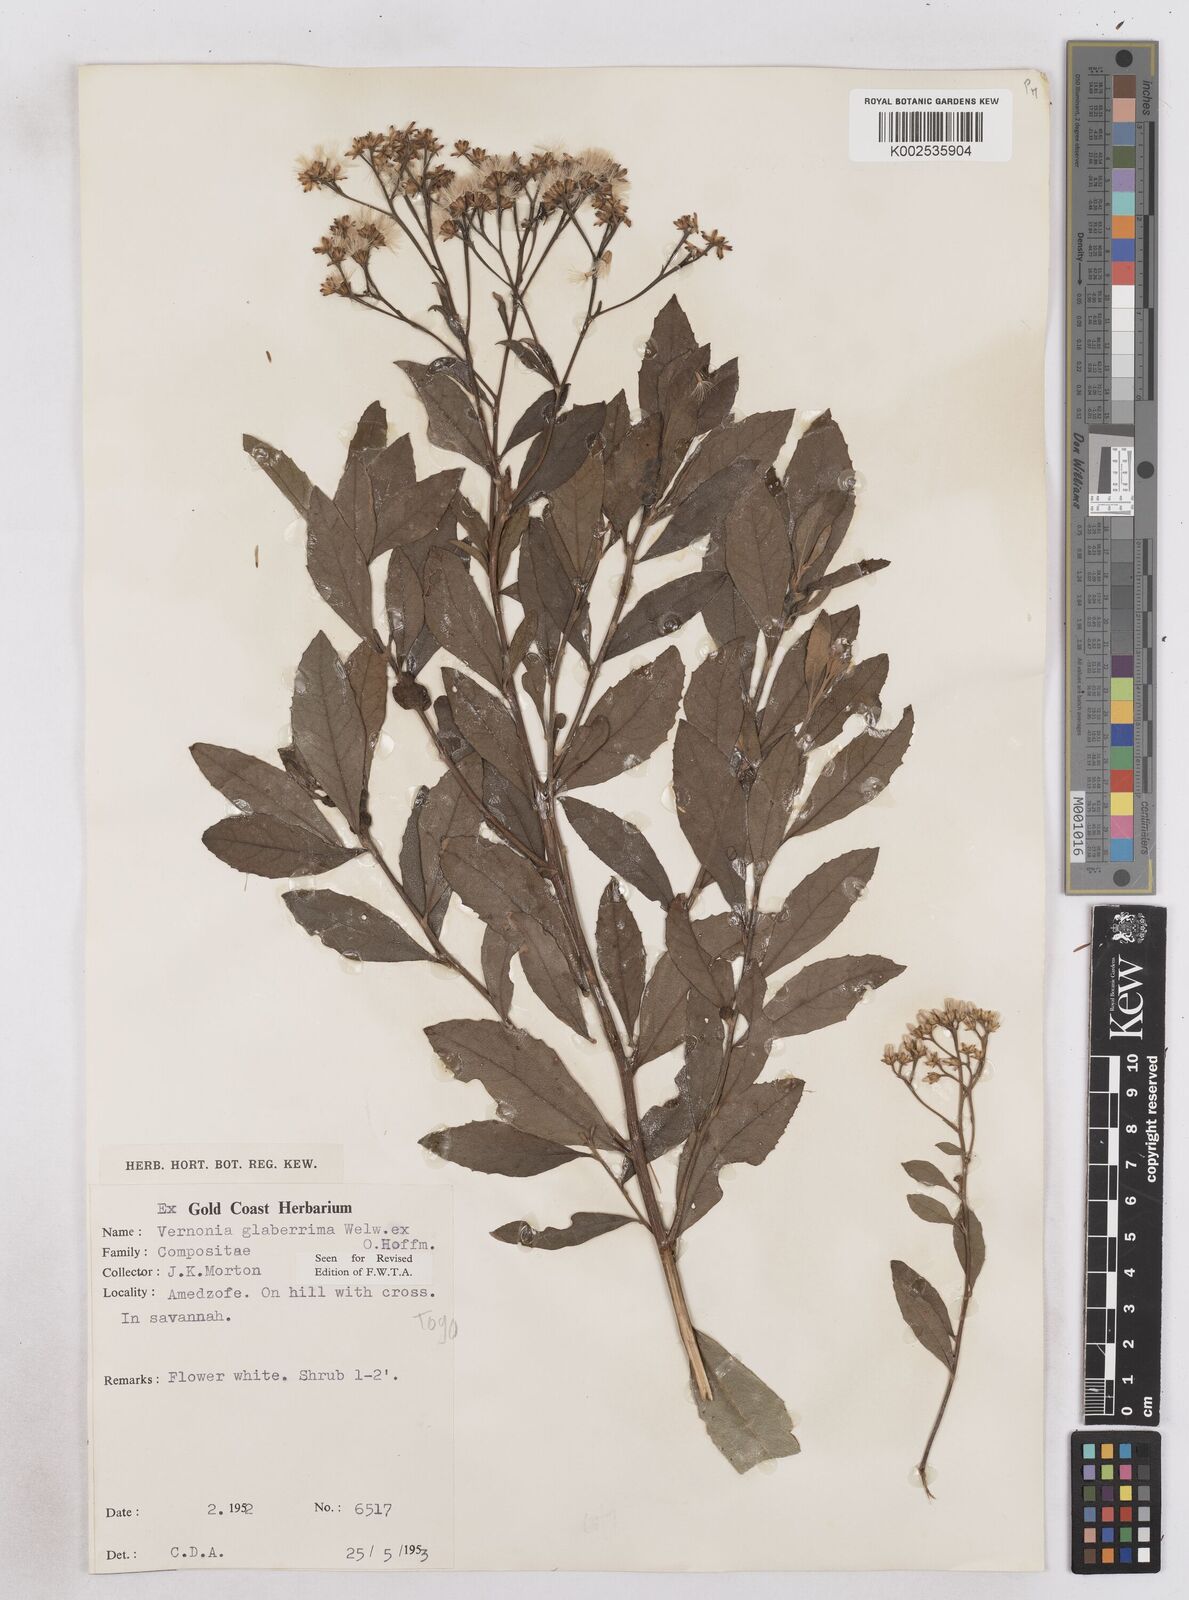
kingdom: Plantae
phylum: Tracheophyta
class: Magnoliopsida
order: Asterales
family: Asteraceae
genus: Gymnanthemum
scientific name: Gymnanthemum glaberrimum
